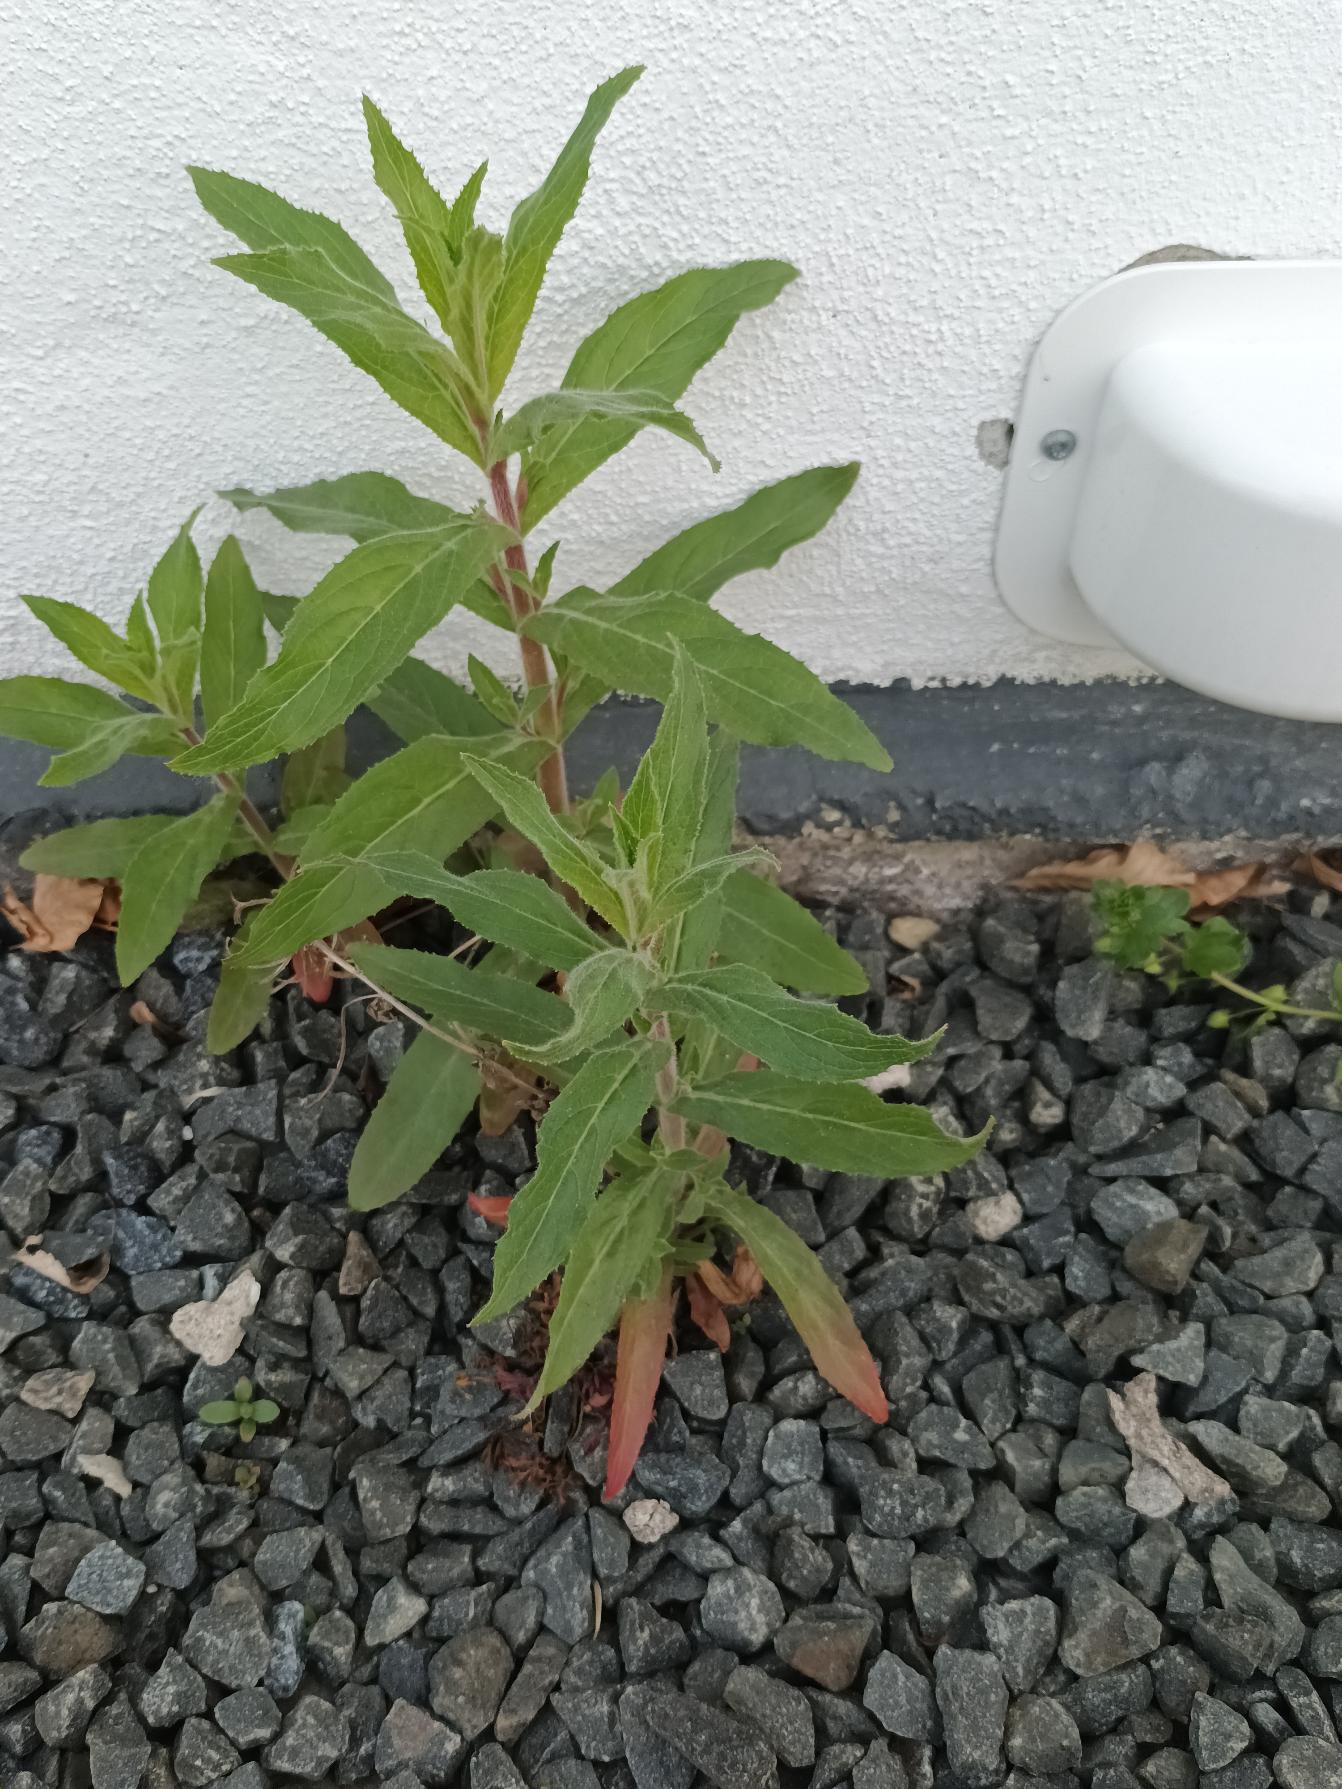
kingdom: Plantae
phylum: Tracheophyta
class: Magnoliopsida
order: Myrtales
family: Onagraceae
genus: Epilobium
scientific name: Epilobium hirsutum
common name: Lådden dueurt
